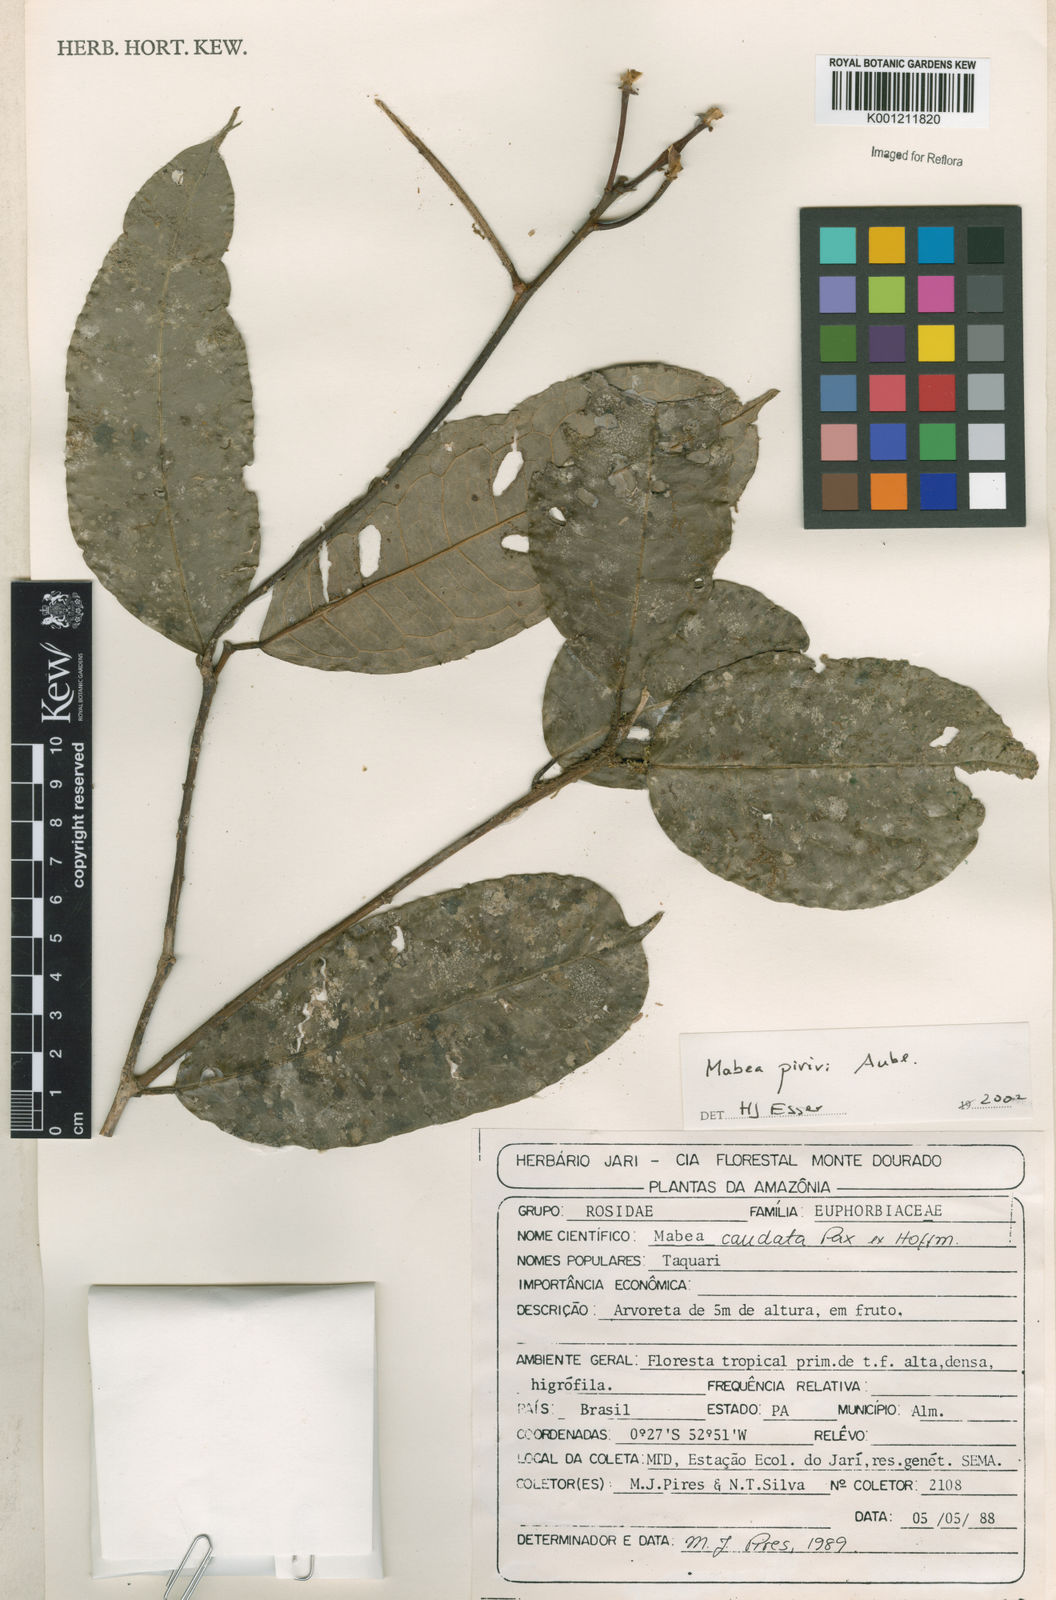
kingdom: Plantae
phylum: Tracheophyta
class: Magnoliopsida
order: Malpighiales
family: Euphorbiaceae
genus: Mabea
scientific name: Mabea piriri
